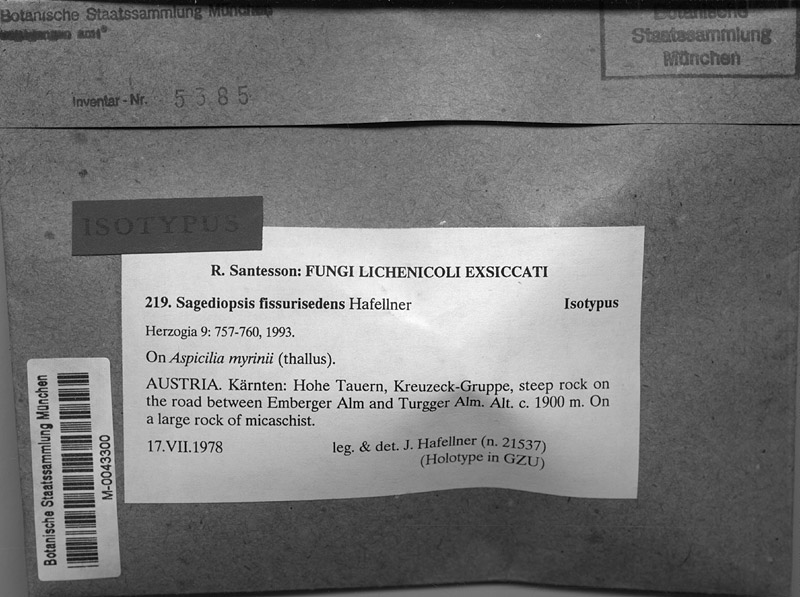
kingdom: Fungi
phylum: Ascomycota
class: Lecanoromycetes
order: Lecanorales
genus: Aspilidea
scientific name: Aspilidea myrinii
